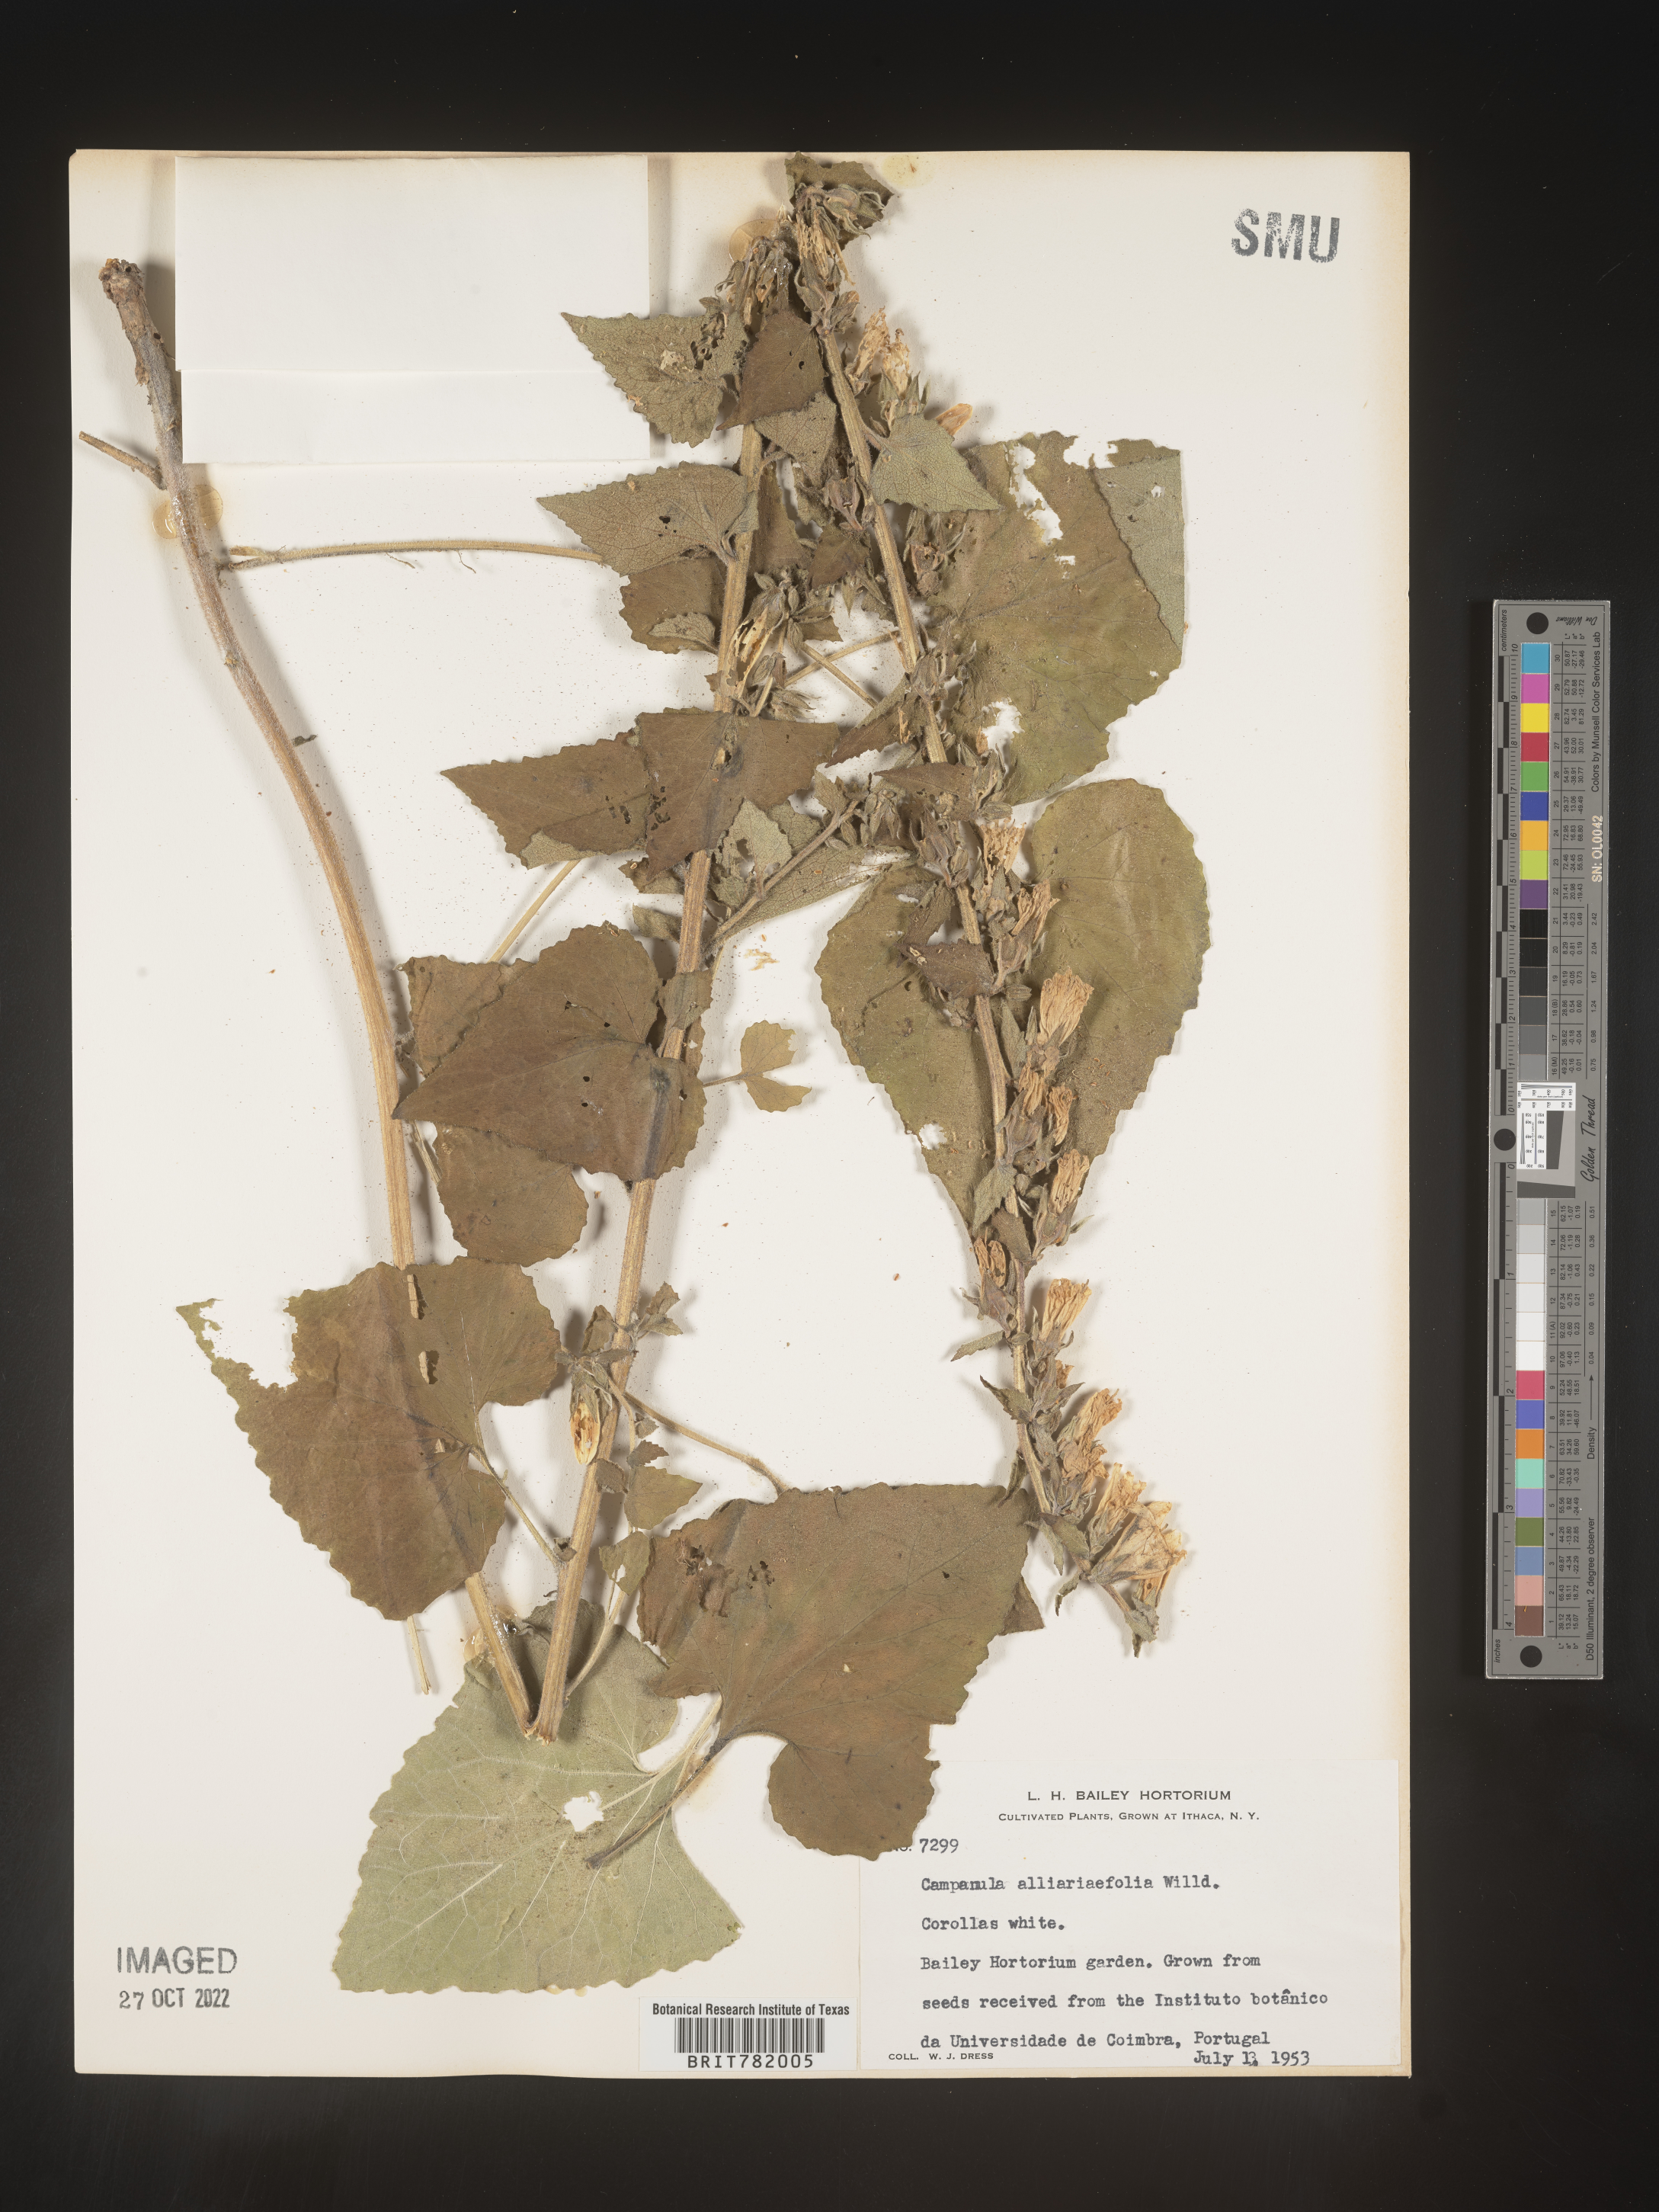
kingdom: Plantae
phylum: Tracheophyta
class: Magnoliopsida
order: Asterales
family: Campanulaceae
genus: Campanula
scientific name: Campanula
